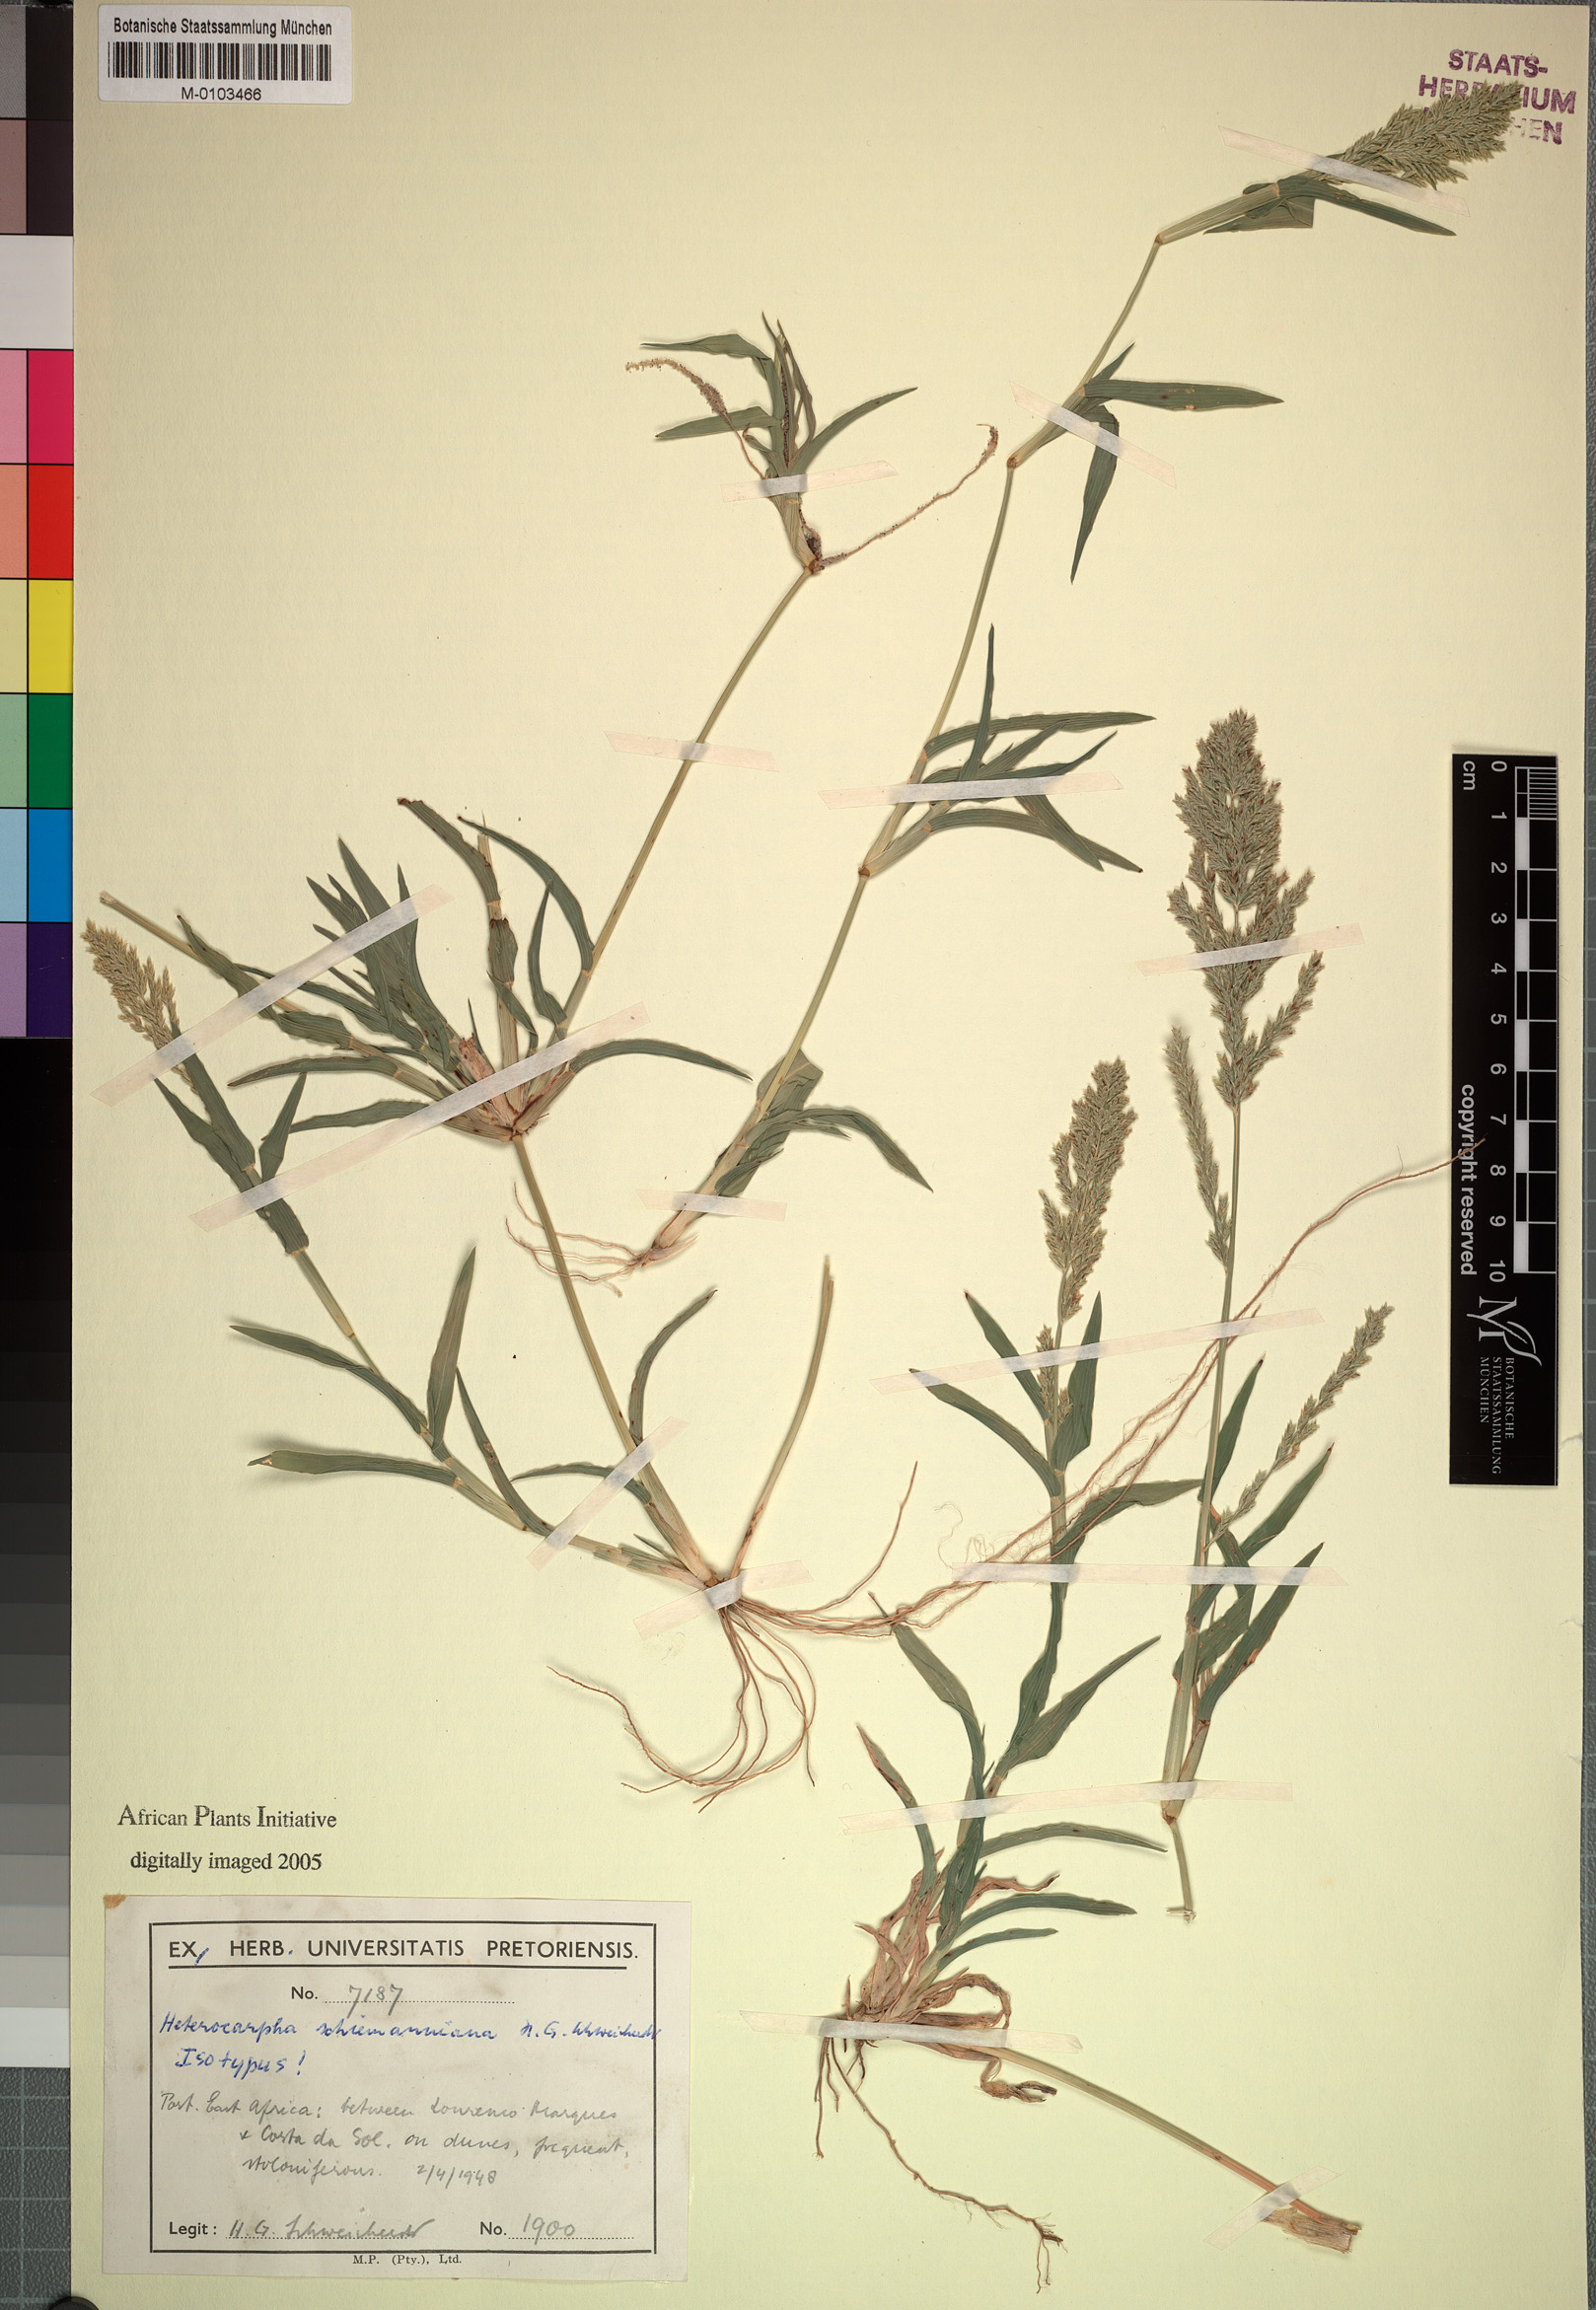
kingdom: Plantae
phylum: Tracheophyta
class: Liliopsida
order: Poales
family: Poaceae
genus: Brachychloa
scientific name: Brachychloa schiemanniana
